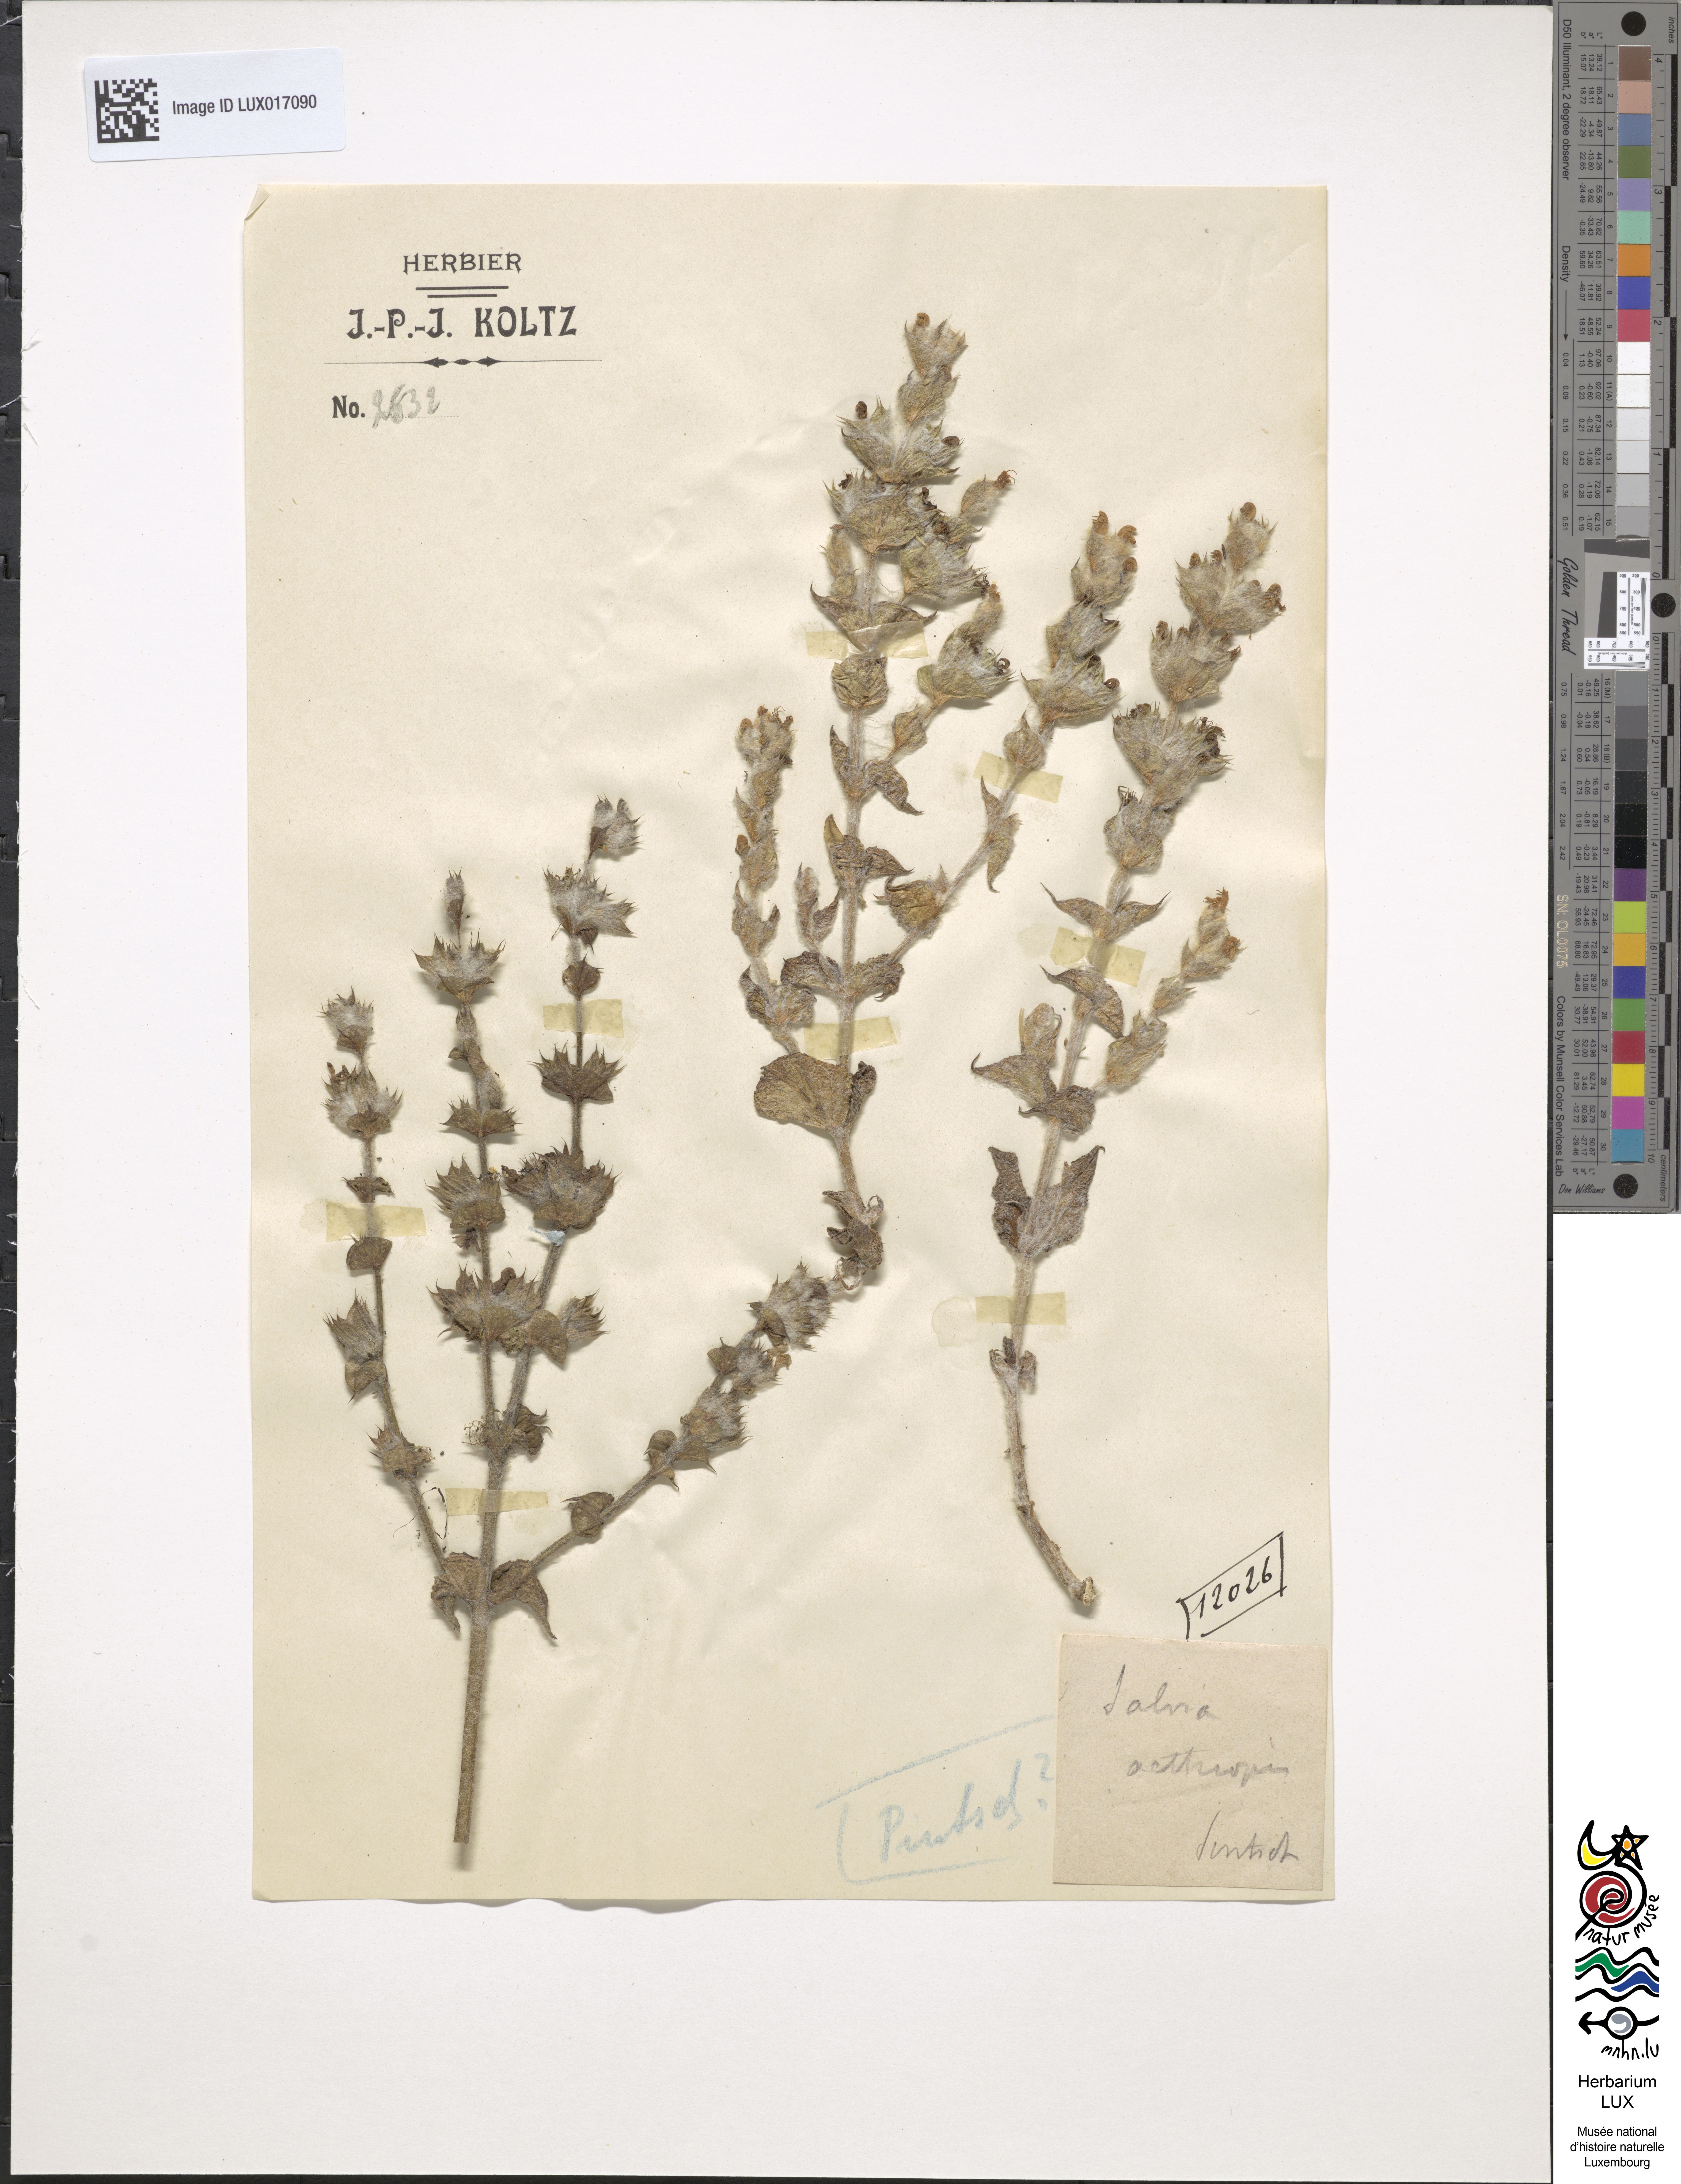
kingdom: Plantae
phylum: Tracheophyta
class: Magnoliopsida
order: Lamiales
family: Lamiaceae
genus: Salvia
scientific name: Salvia aethiopis
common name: Mediterranean sage
